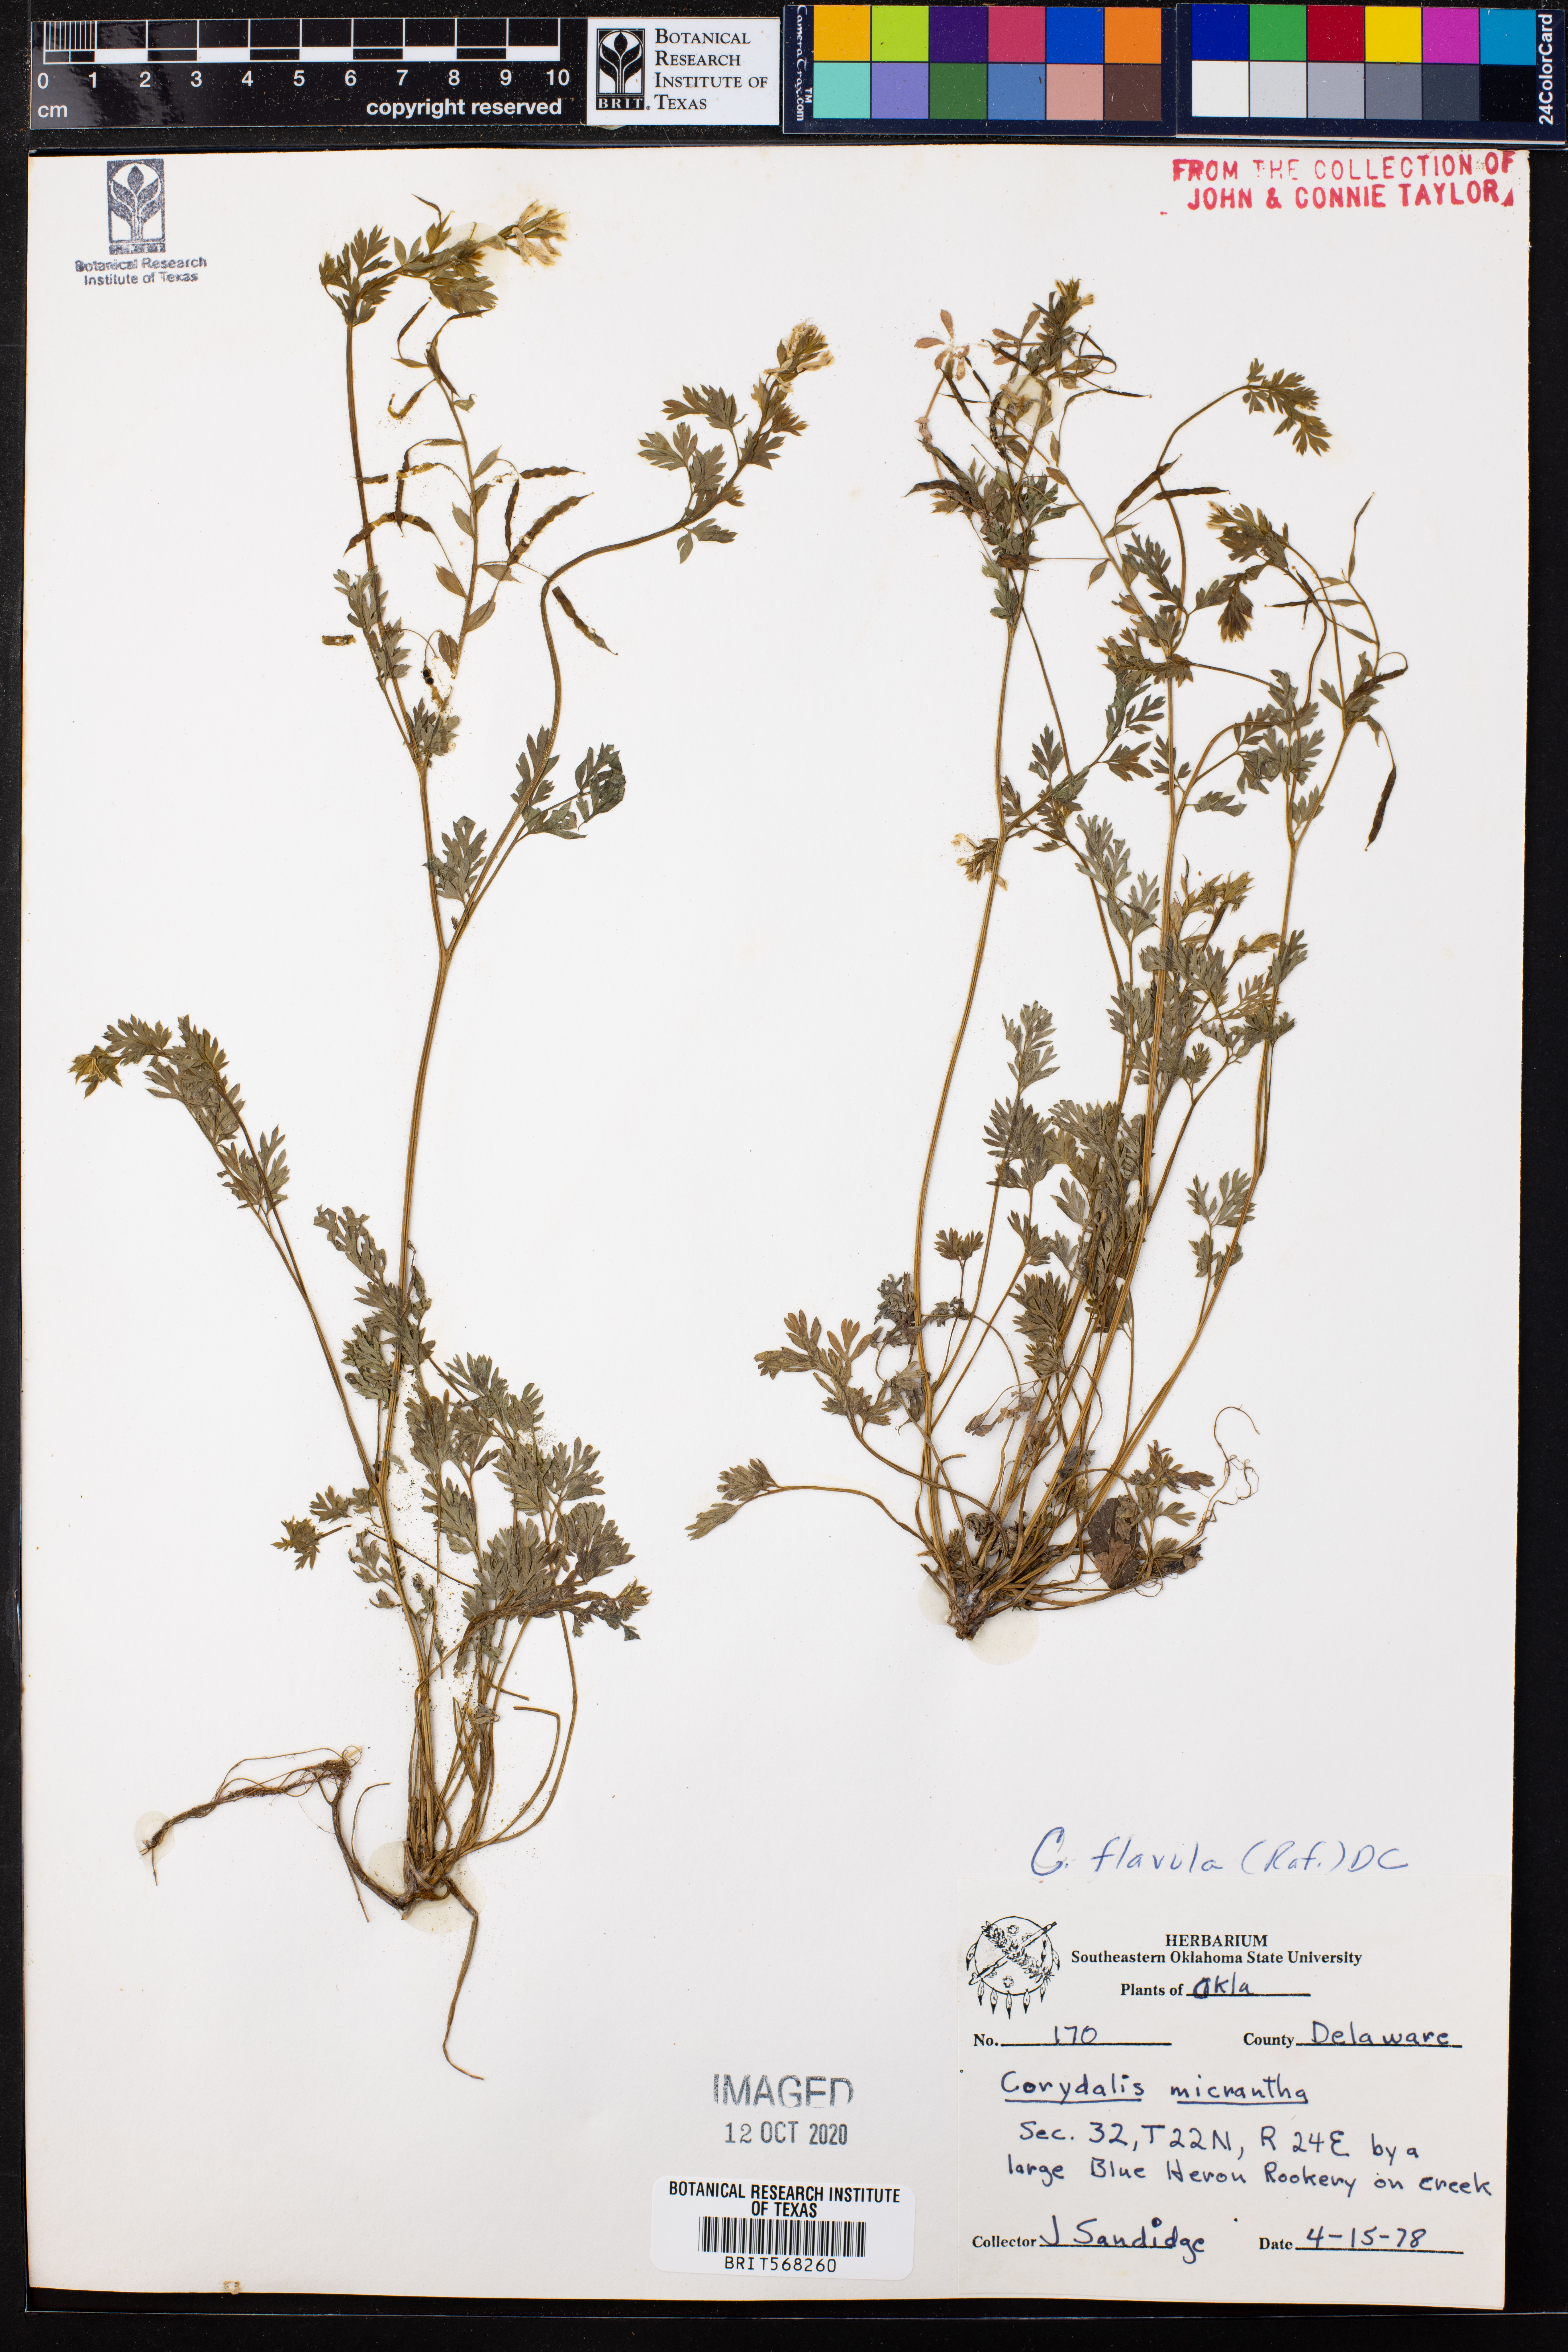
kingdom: Plantae
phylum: Tracheophyta
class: Magnoliopsida
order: Ranunculales
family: Papaveraceae
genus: Corydalis
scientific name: Corydalis flavula
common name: Yellow corydalis
